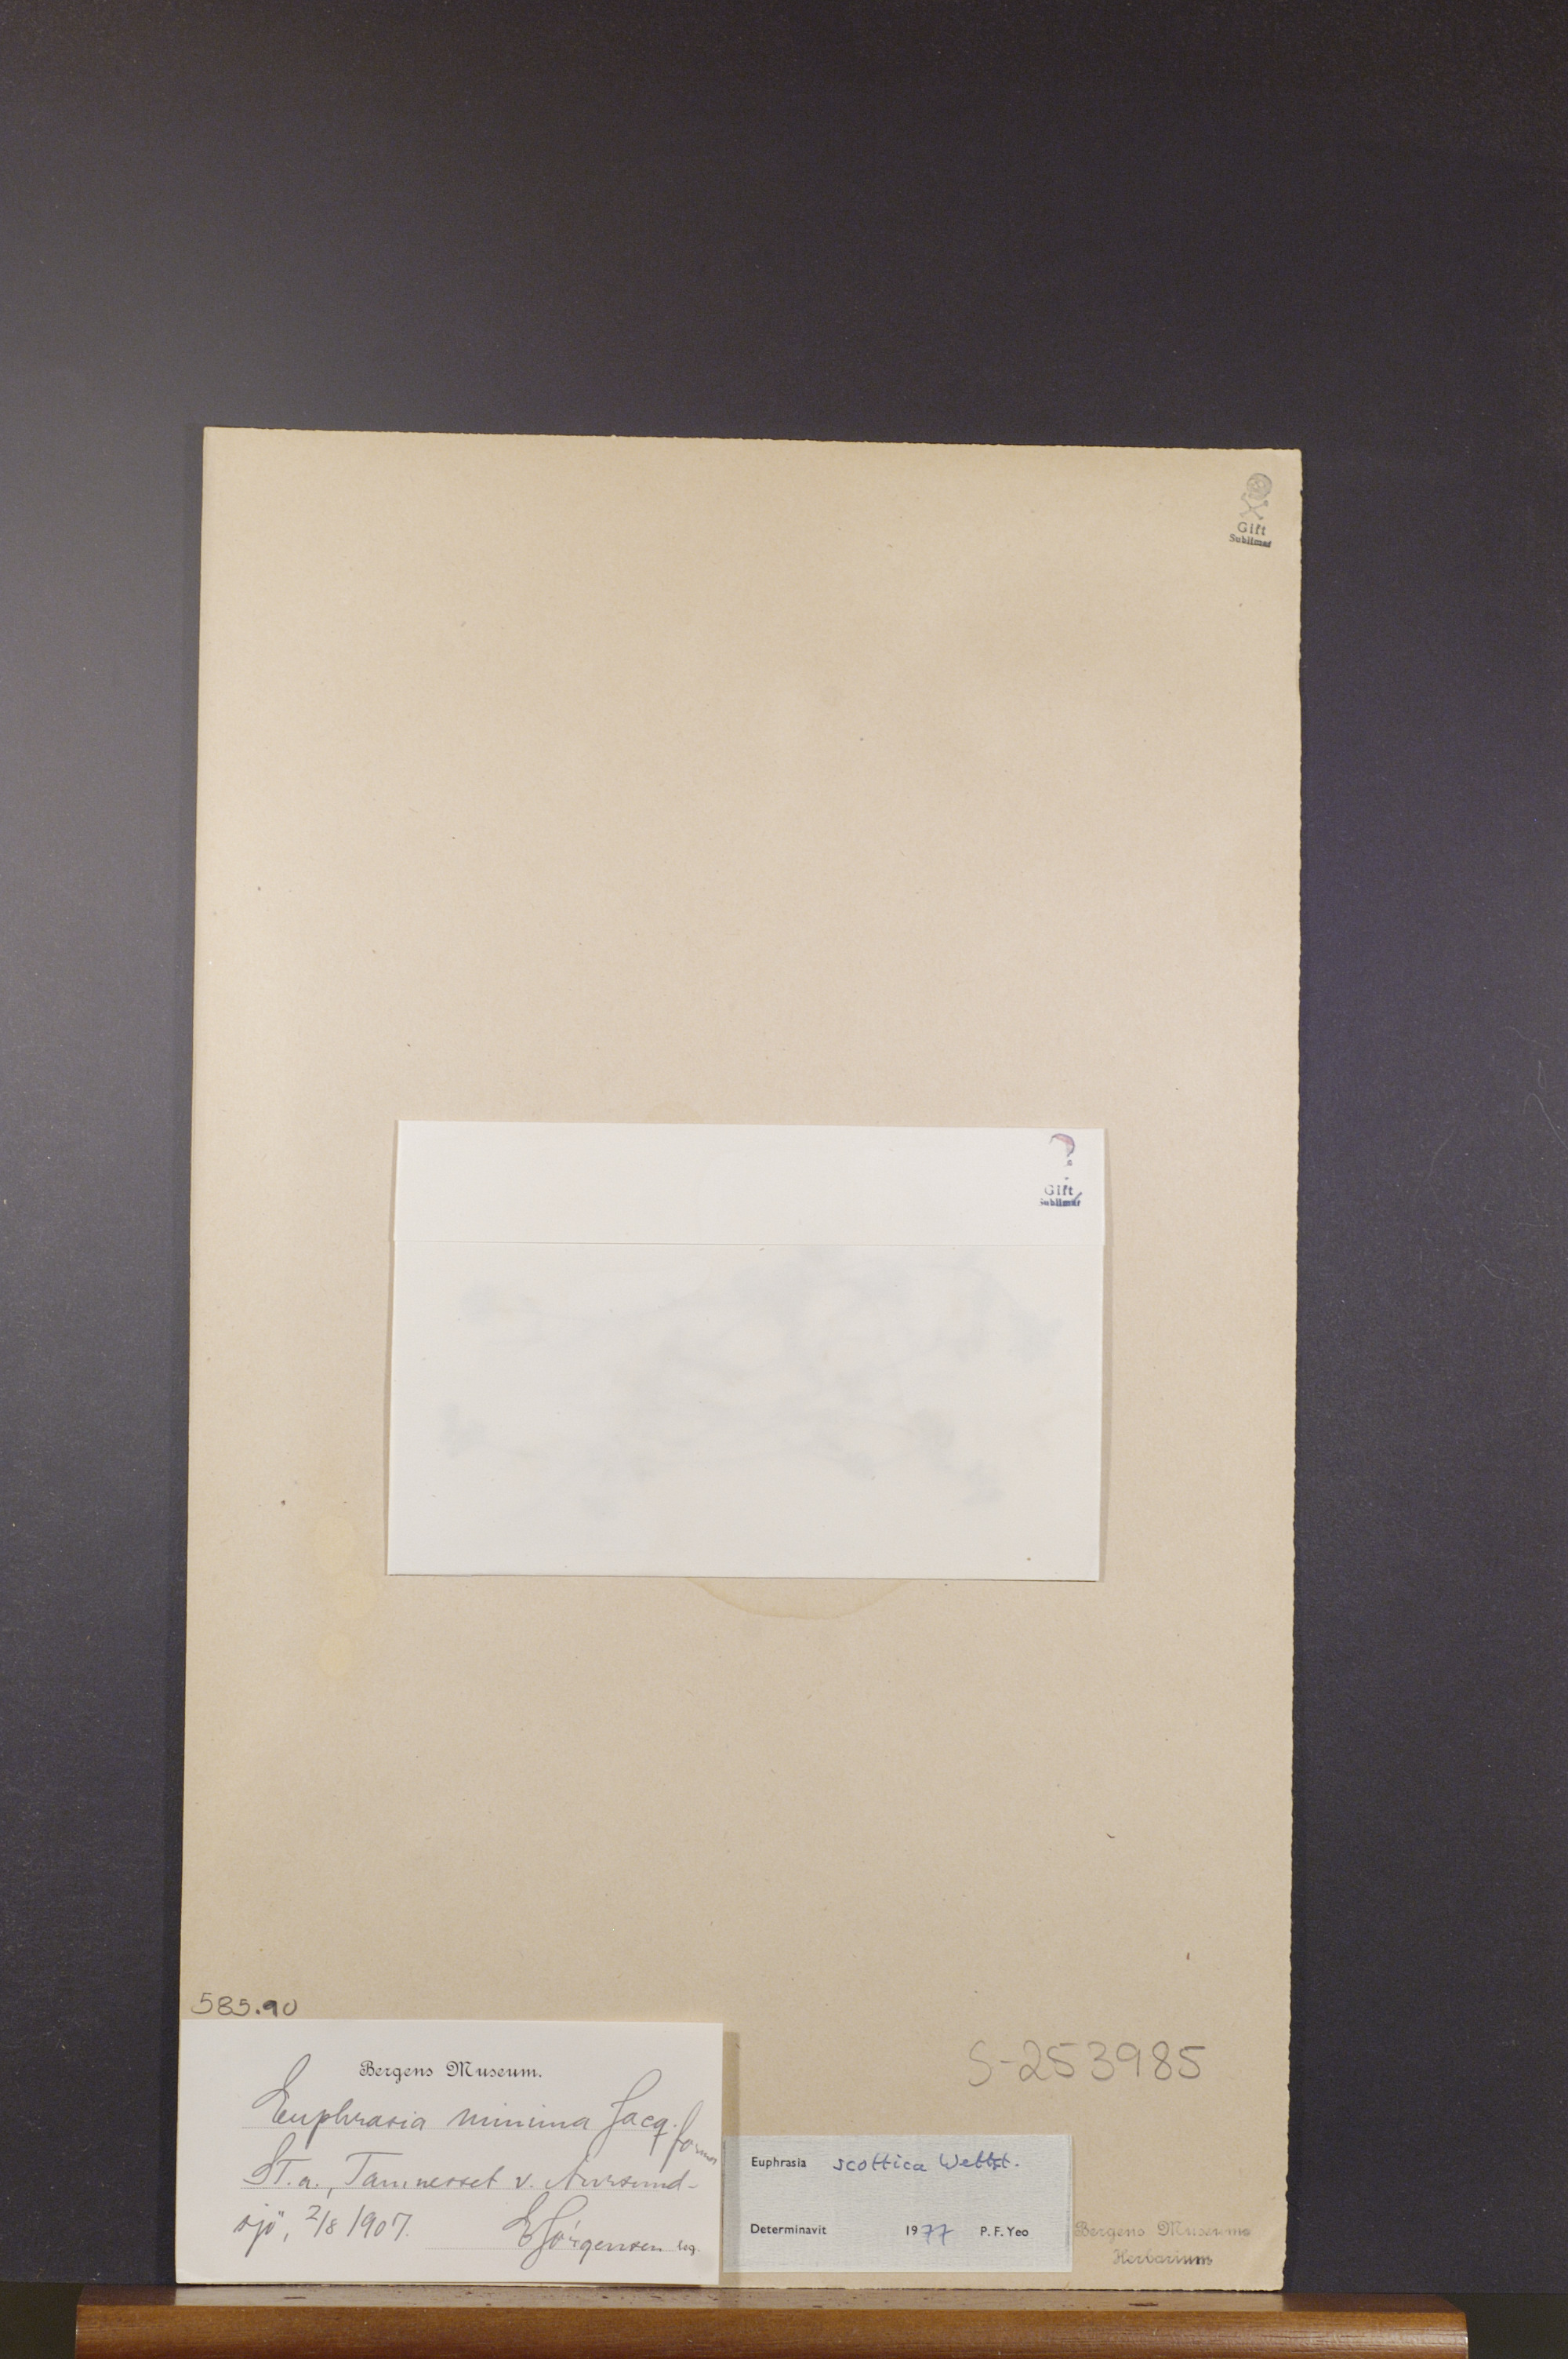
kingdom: Plantae
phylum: Tracheophyta
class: Magnoliopsida
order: Lamiales
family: Orobanchaceae
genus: Euphrasia
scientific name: Euphrasia scottica
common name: Slender scottish eyebright
